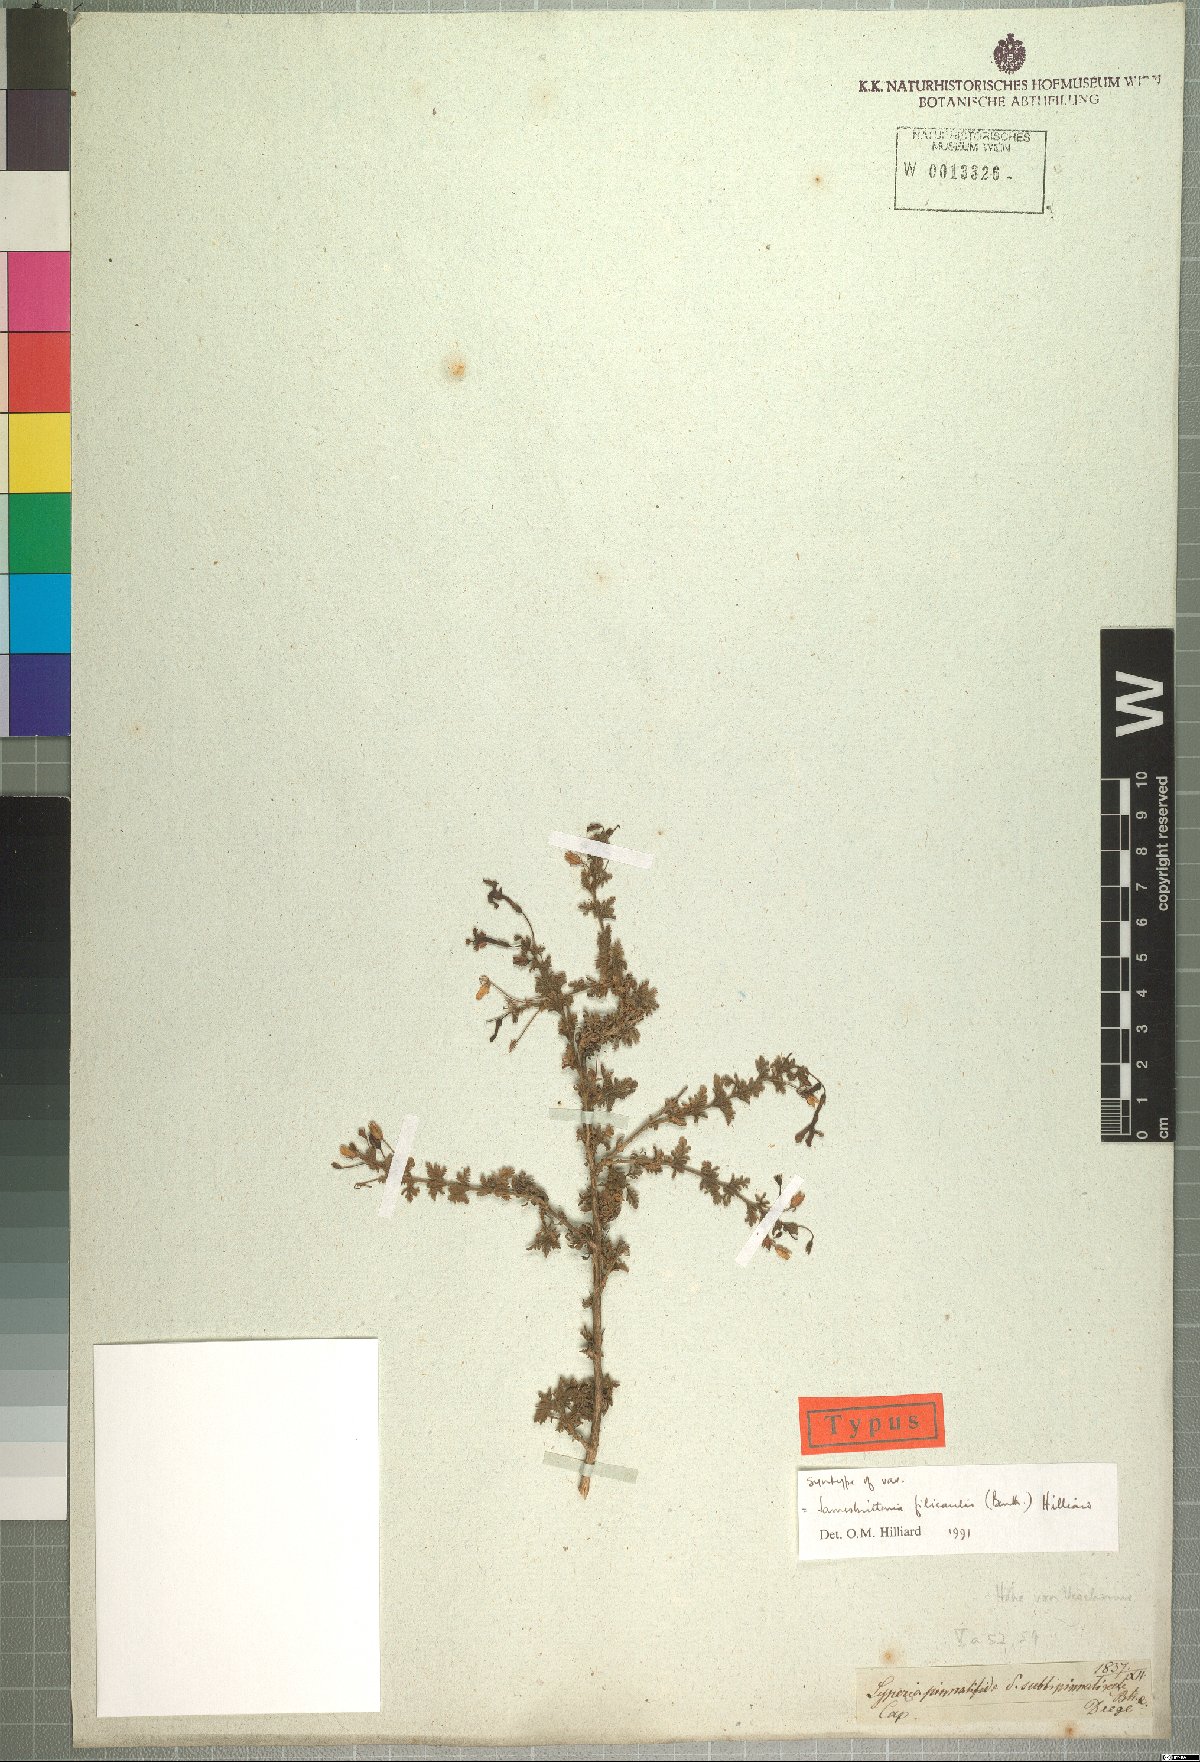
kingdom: Plantae
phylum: Tracheophyta
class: Magnoliopsida
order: Lamiales
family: Scrophulariaceae
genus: Jamesbrittenia
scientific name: Jamesbrittenia filicaulis
